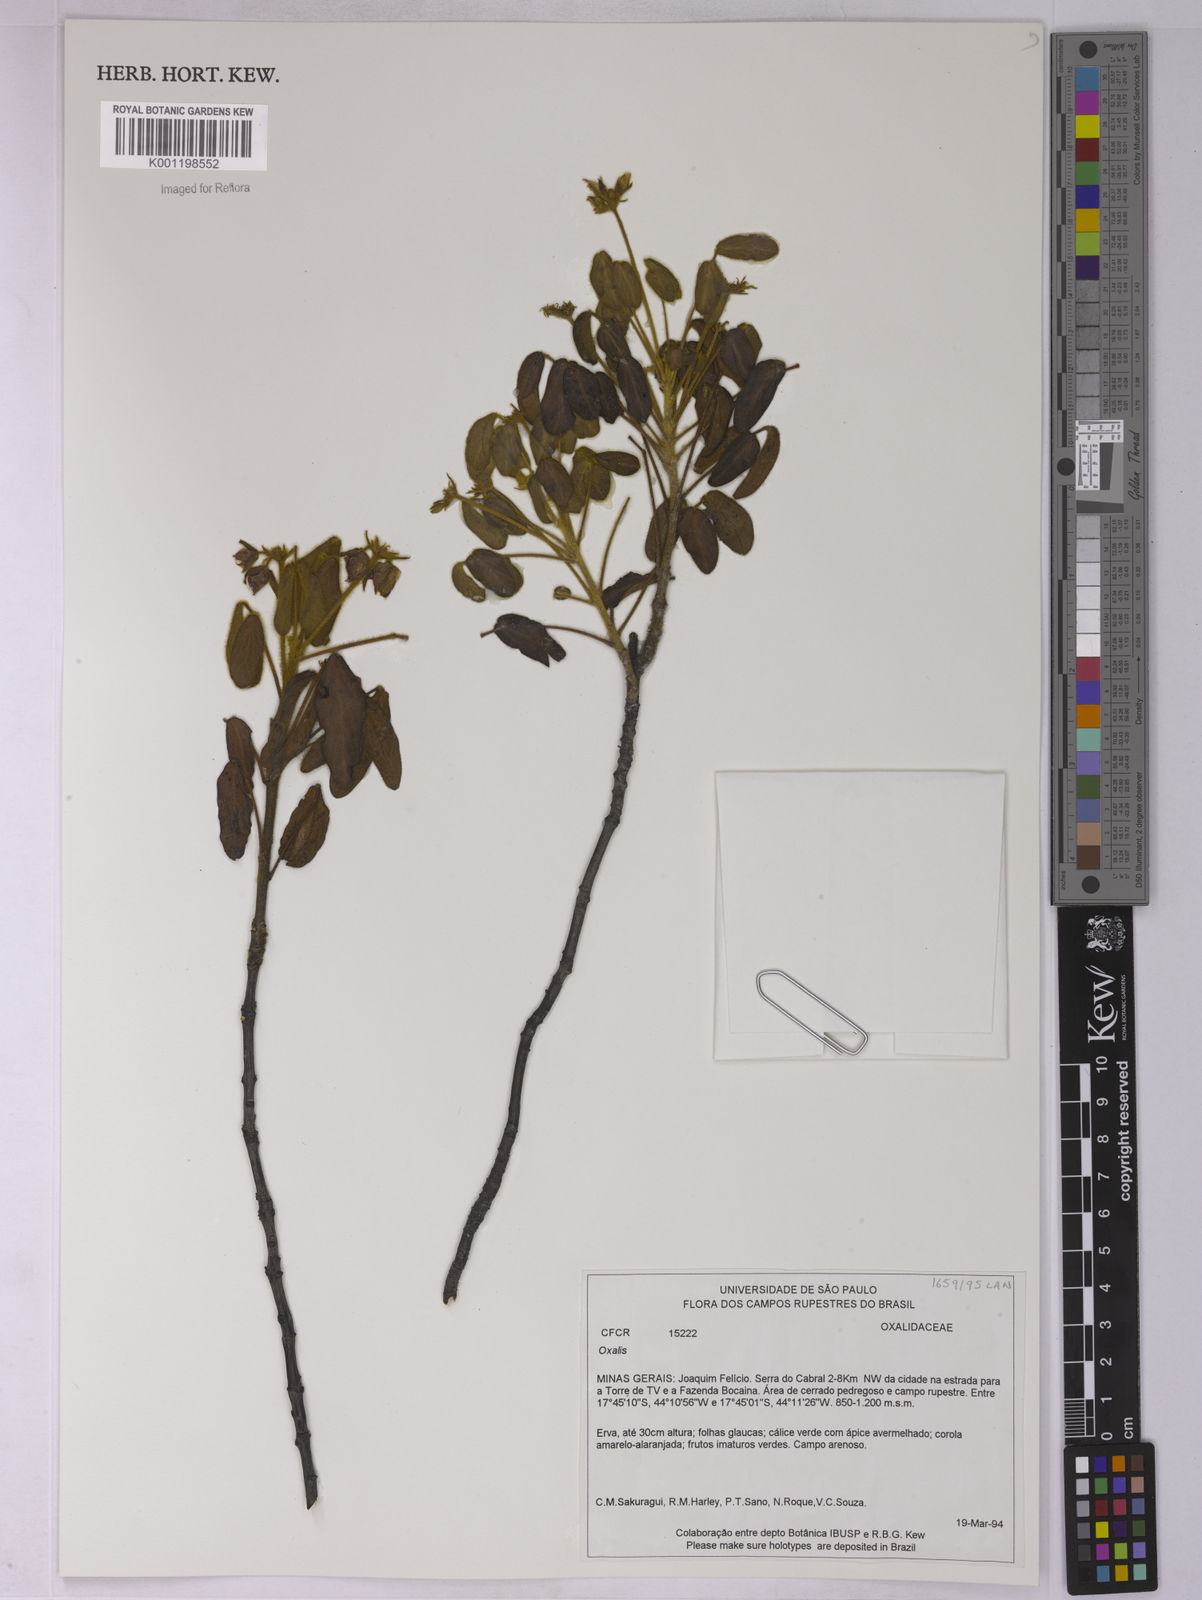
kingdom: Plantae
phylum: Tracheophyta
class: Magnoliopsida
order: Oxalidales
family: Oxalidaceae
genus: Oxalis
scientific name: Oxalis
